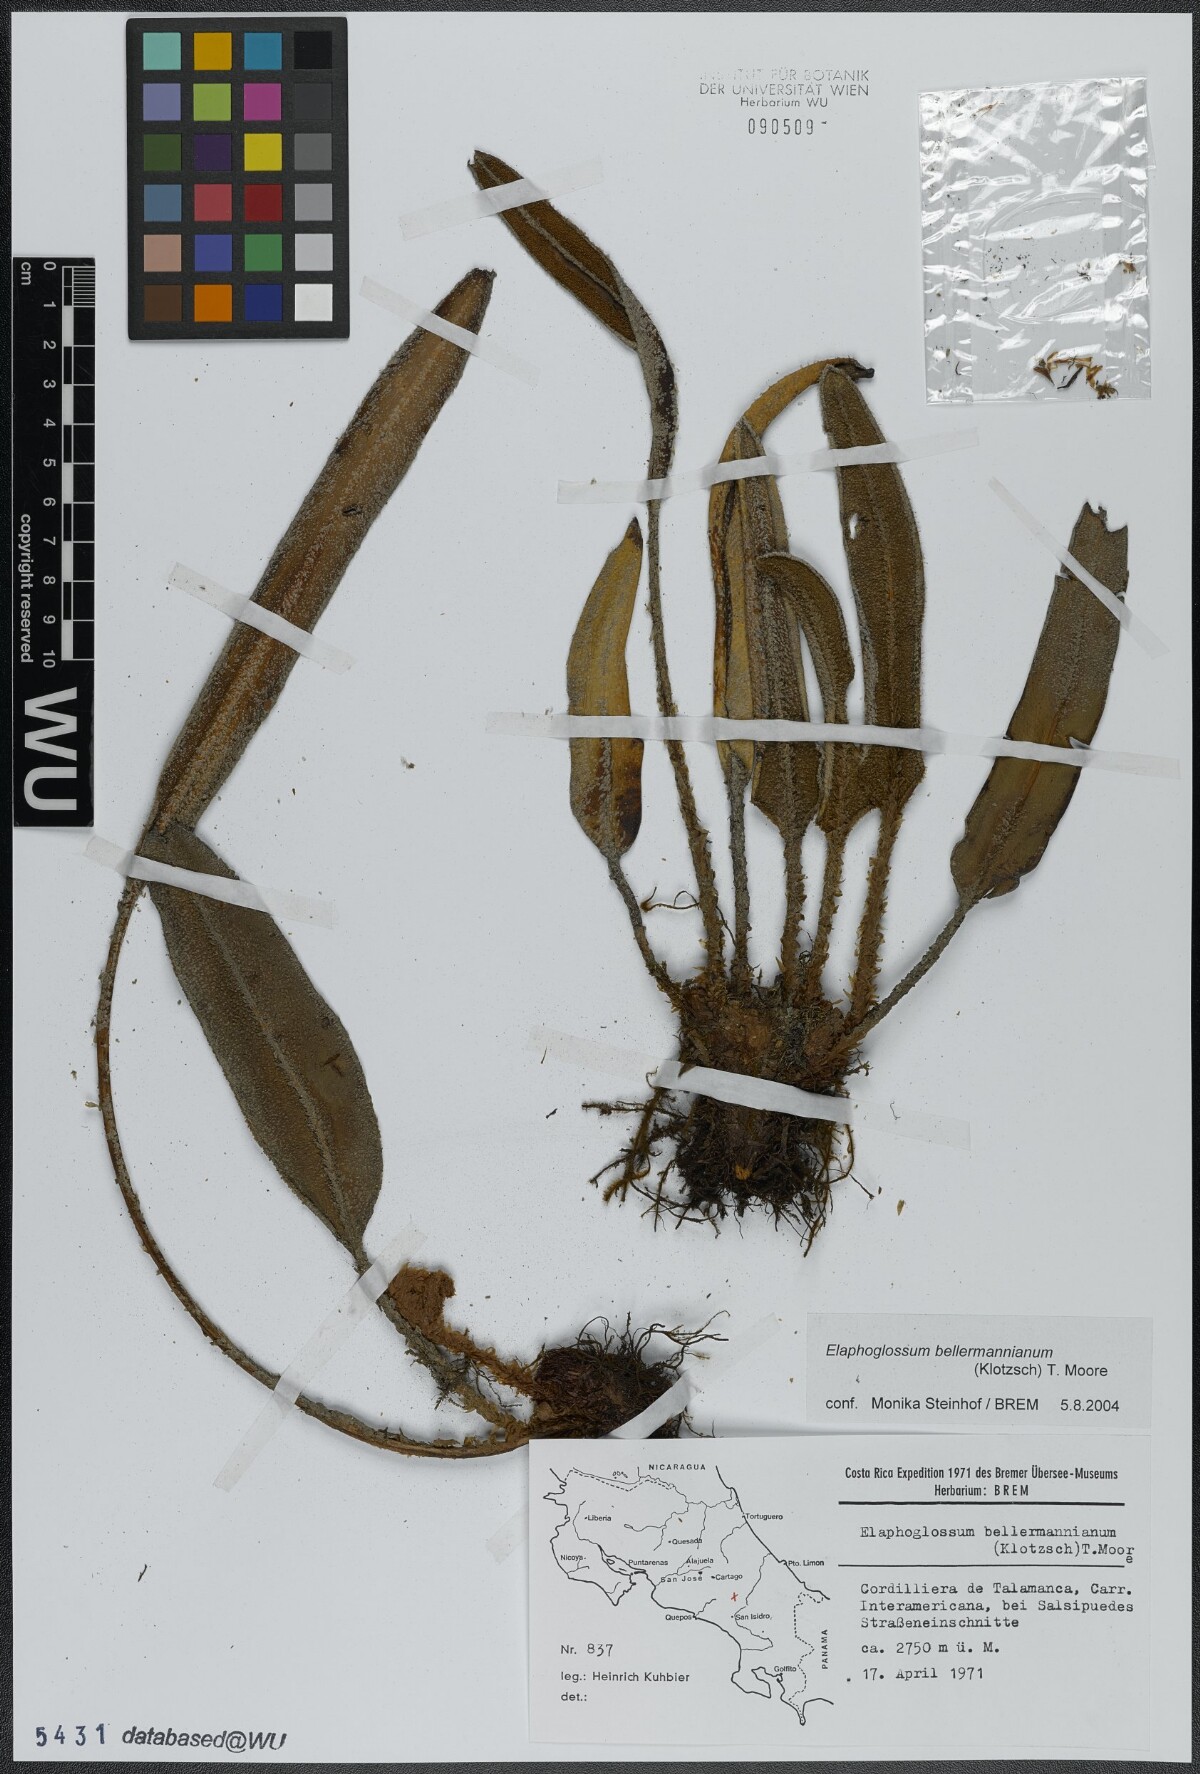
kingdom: Plantae
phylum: Tracheophyta
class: Polypodiopsida
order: Polypodiales
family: Dryopteridaceae
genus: Elaphoglossum
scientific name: Elaphoglossum bellermannianum
